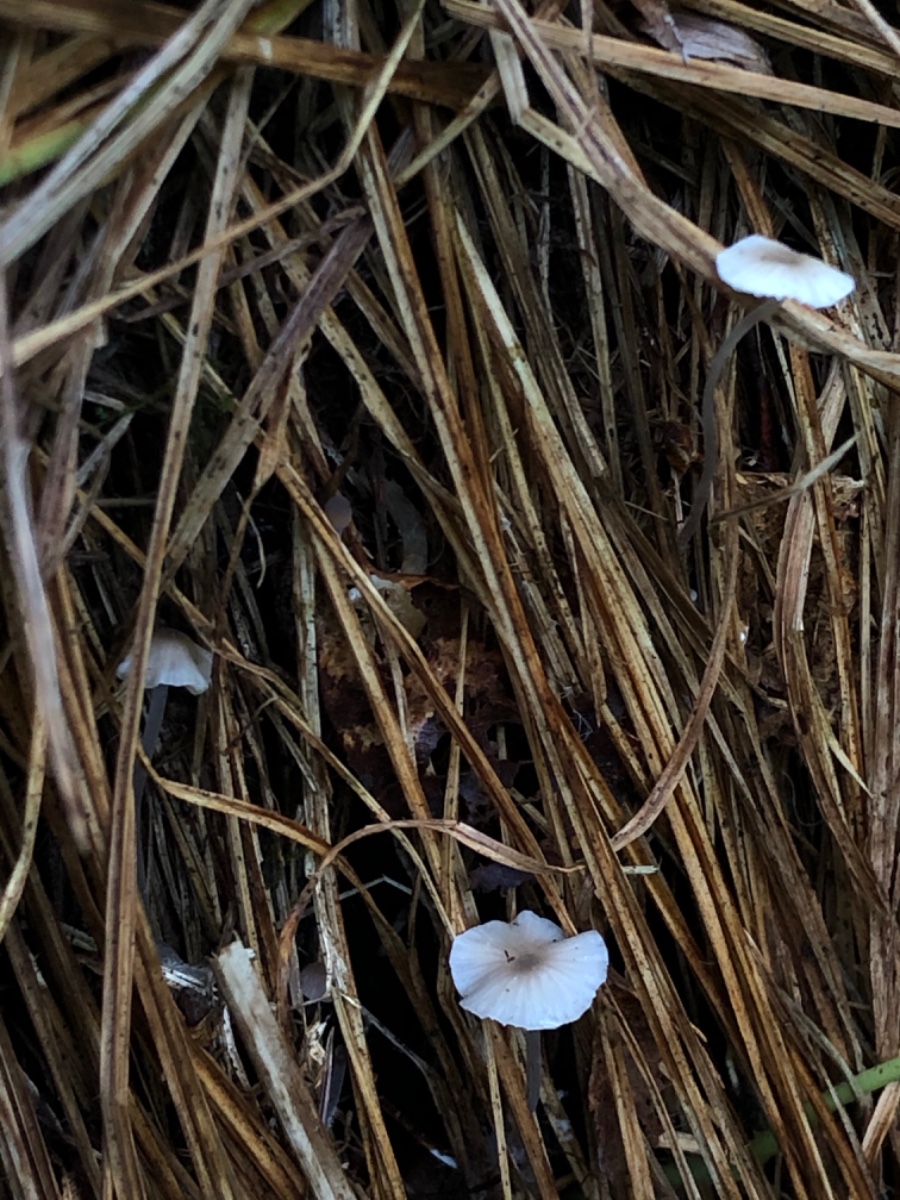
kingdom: Fungi
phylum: Basidiomycota
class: Agaricomycetes
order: Agaricales
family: Mycenaceae
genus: Mycena
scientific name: Mycena galopus
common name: hvidmælket huesvamp
